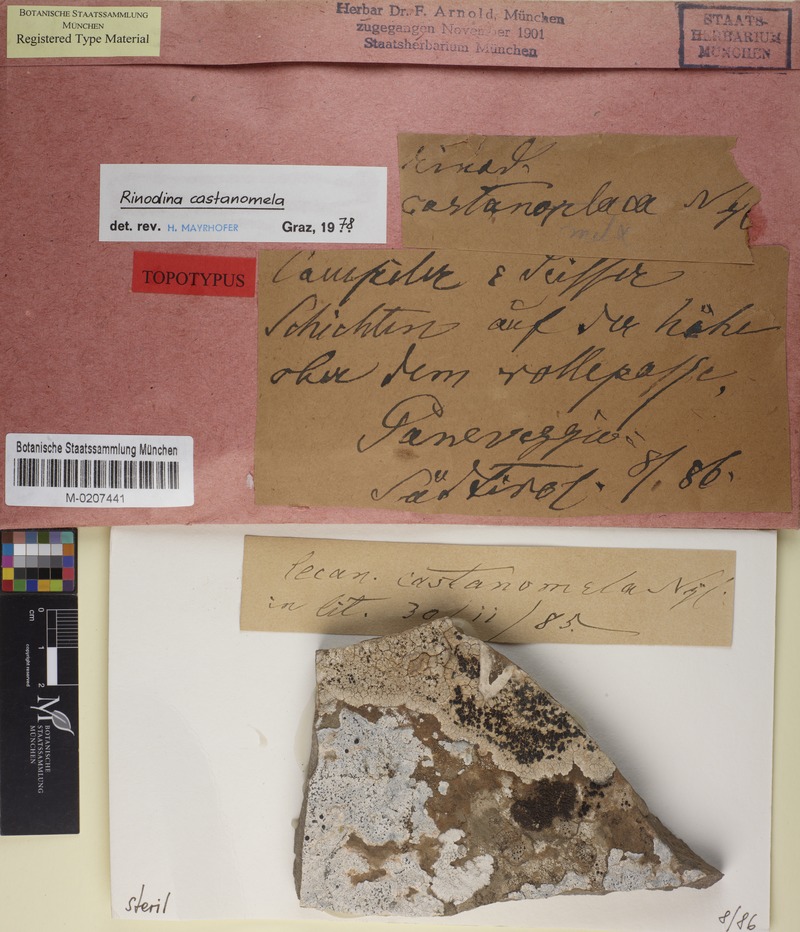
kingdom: Fungi
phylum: Ascomycota
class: Lecanoromycetes
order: Caliciales
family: Physciaceae
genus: Rinodina
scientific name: Rinodina castanomela
